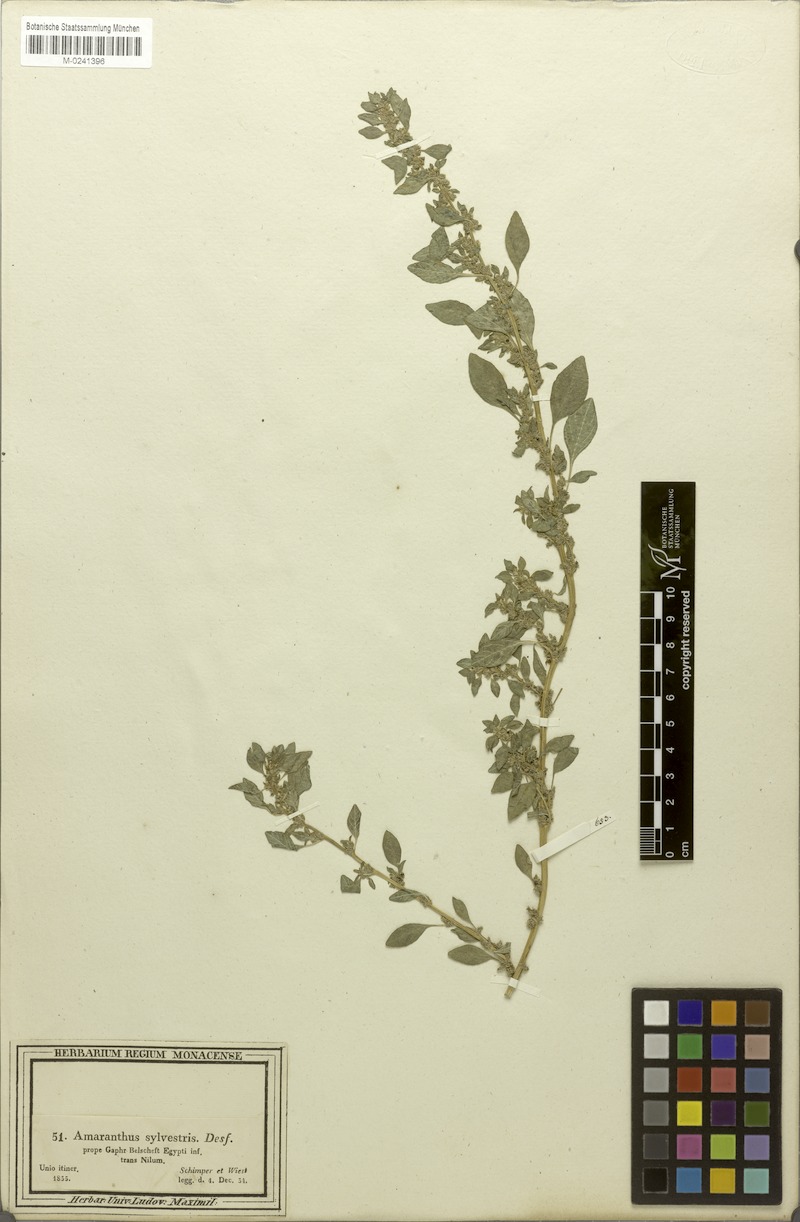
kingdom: Plantae
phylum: Tracheophyta
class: Magnoliopsida
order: Caryophyllales
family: Amaranthaceae
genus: Amaranthus
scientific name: Amaranthus graecizans
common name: Mediterranean amaranth
